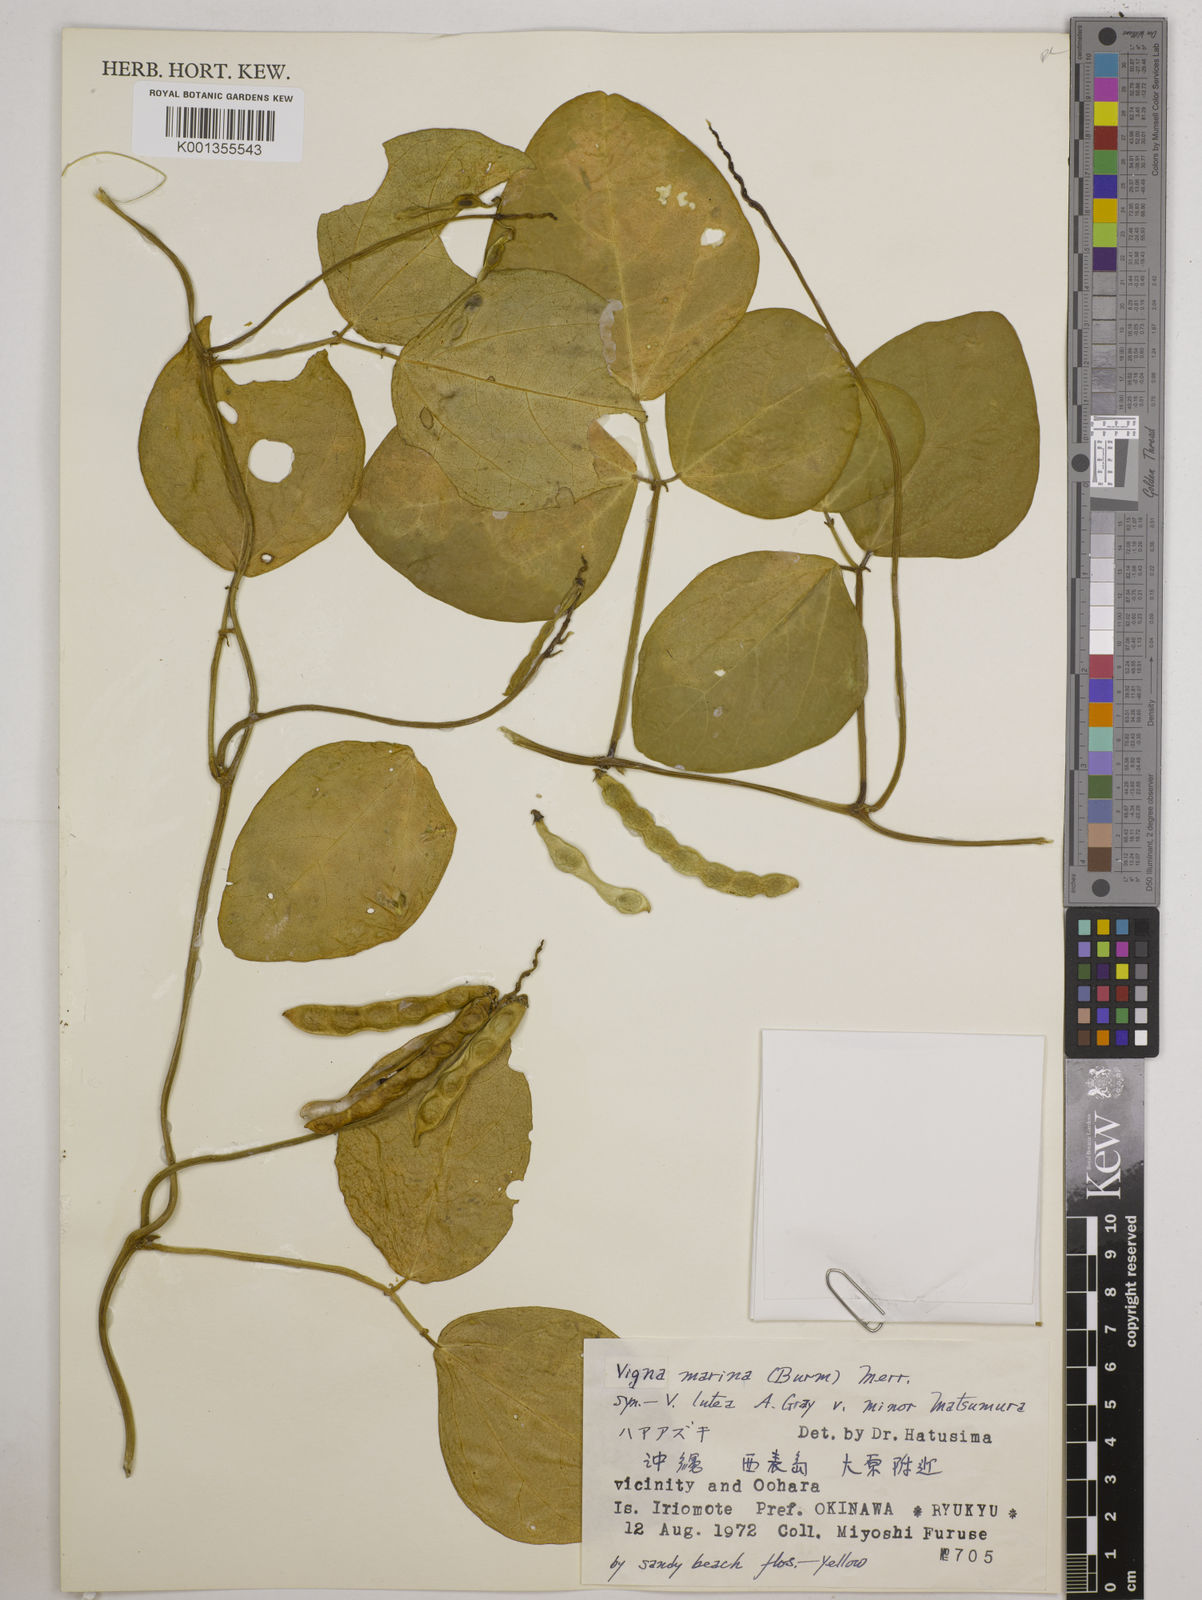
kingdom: Plantae
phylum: Tracheophyta
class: Magnoliopsida
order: Fabales
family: Fabaceae
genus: Vigna
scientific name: Vigna marina
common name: Dune-bean
